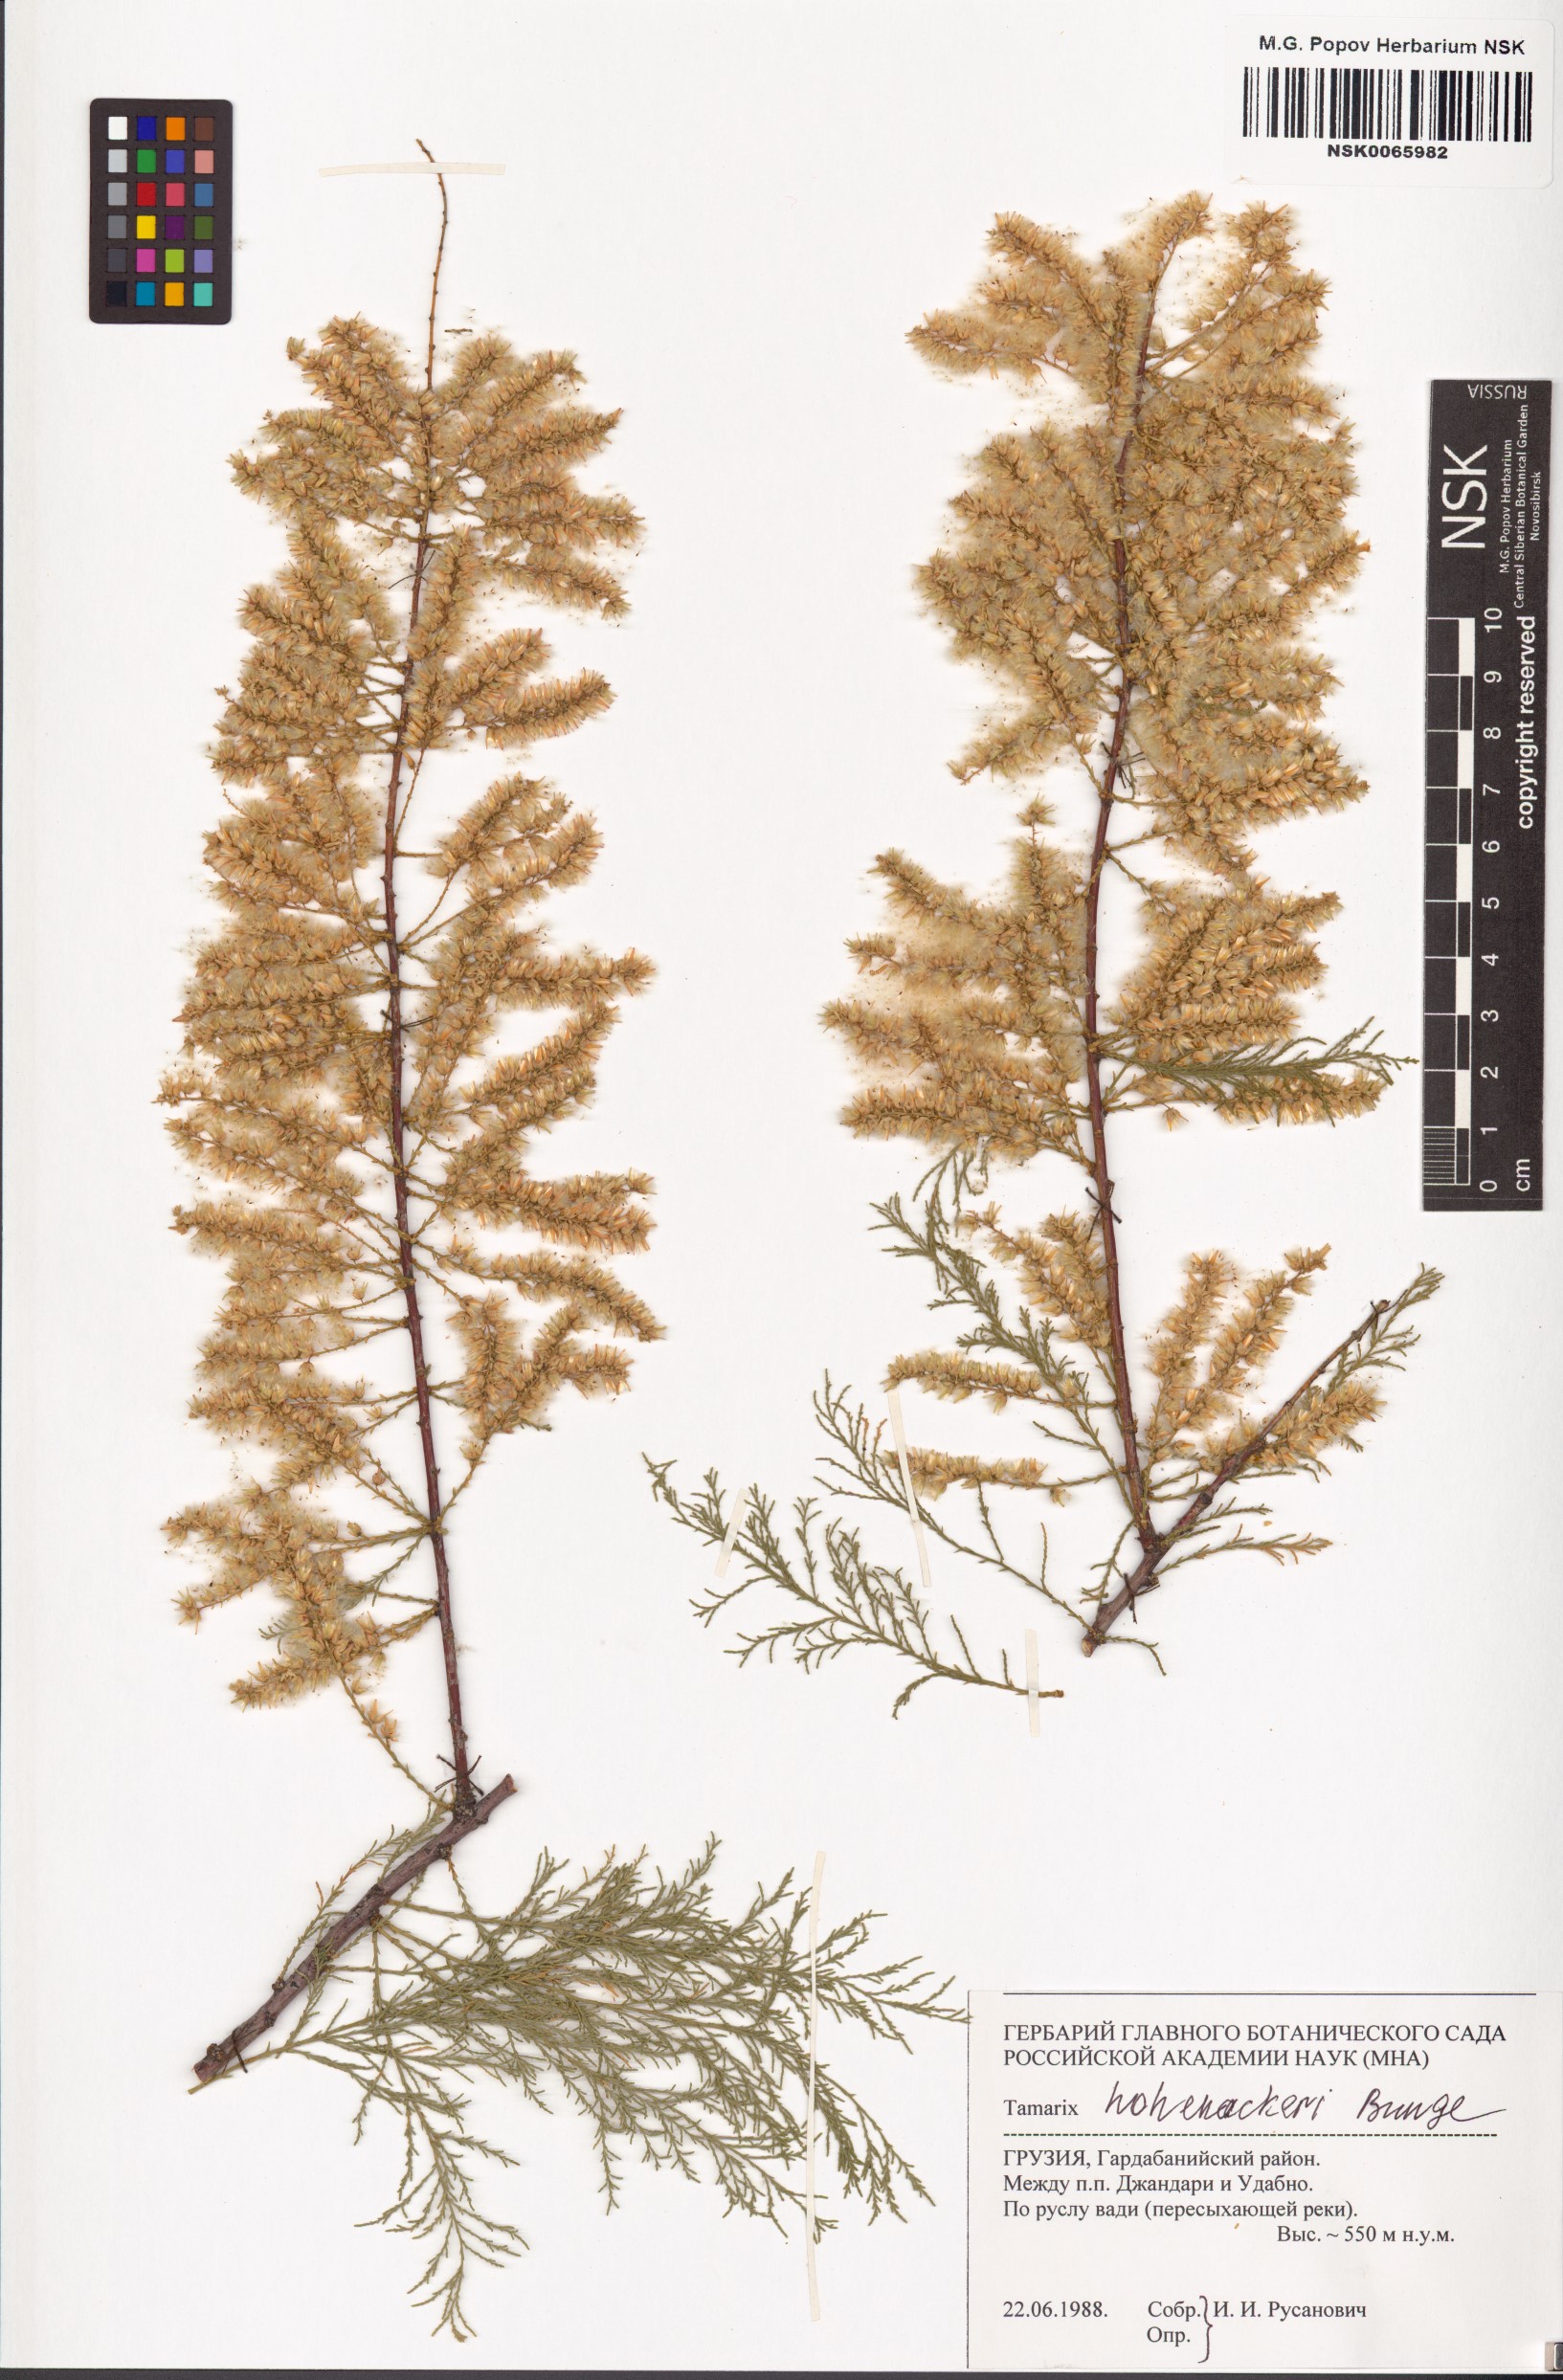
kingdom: Plantae
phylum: Tracheophyta
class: Magnoliopsida
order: Caryophyllales
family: Tamaricaceae
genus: Tamarix
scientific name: Tamarix hohenackeri
